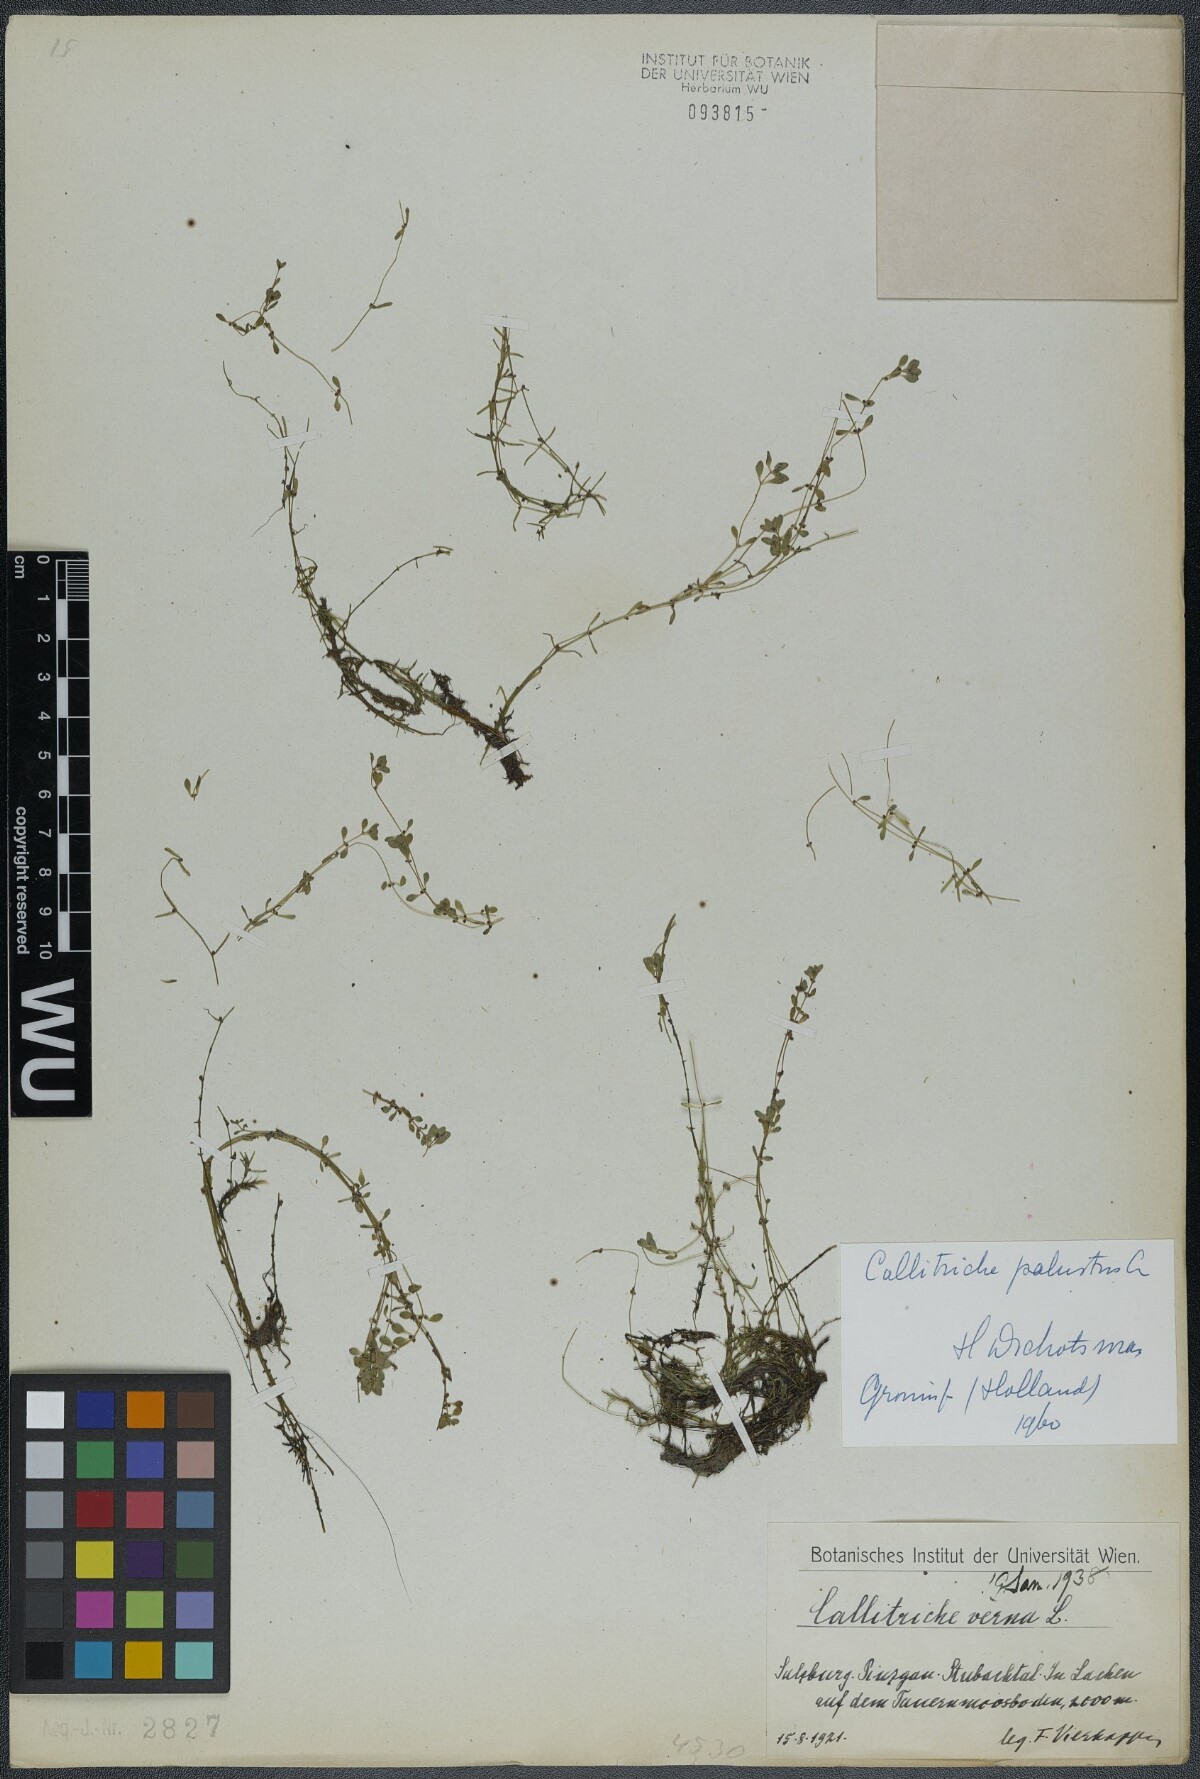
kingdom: Plantae
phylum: Tracheophyta
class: Magnoliopsida
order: Lamiales
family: Plantaginaceae
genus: Callitriche
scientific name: Callitriche palustris
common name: Spring water-starwort
